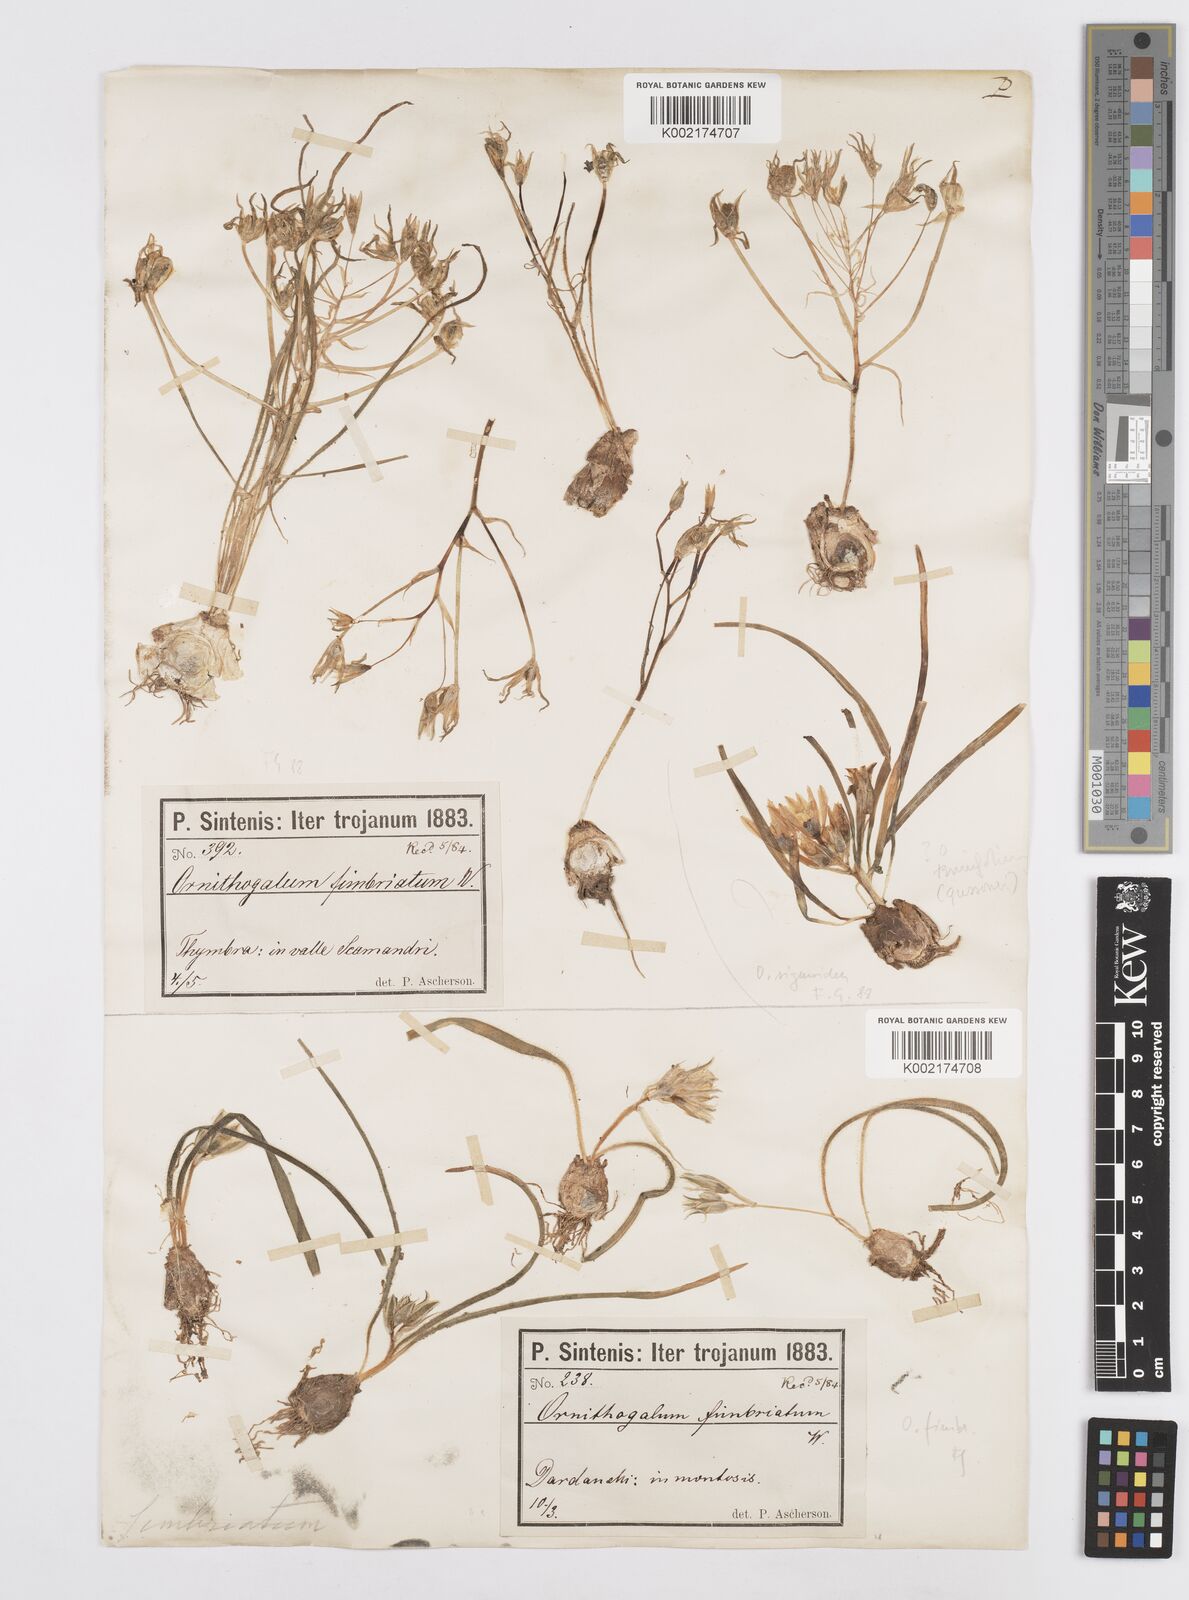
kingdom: Plantae
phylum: Tracheophyta
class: Liliopsida
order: Asparagales
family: Asparagaceae
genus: Ornithogalum
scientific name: Ornithogalum fimbriatum
